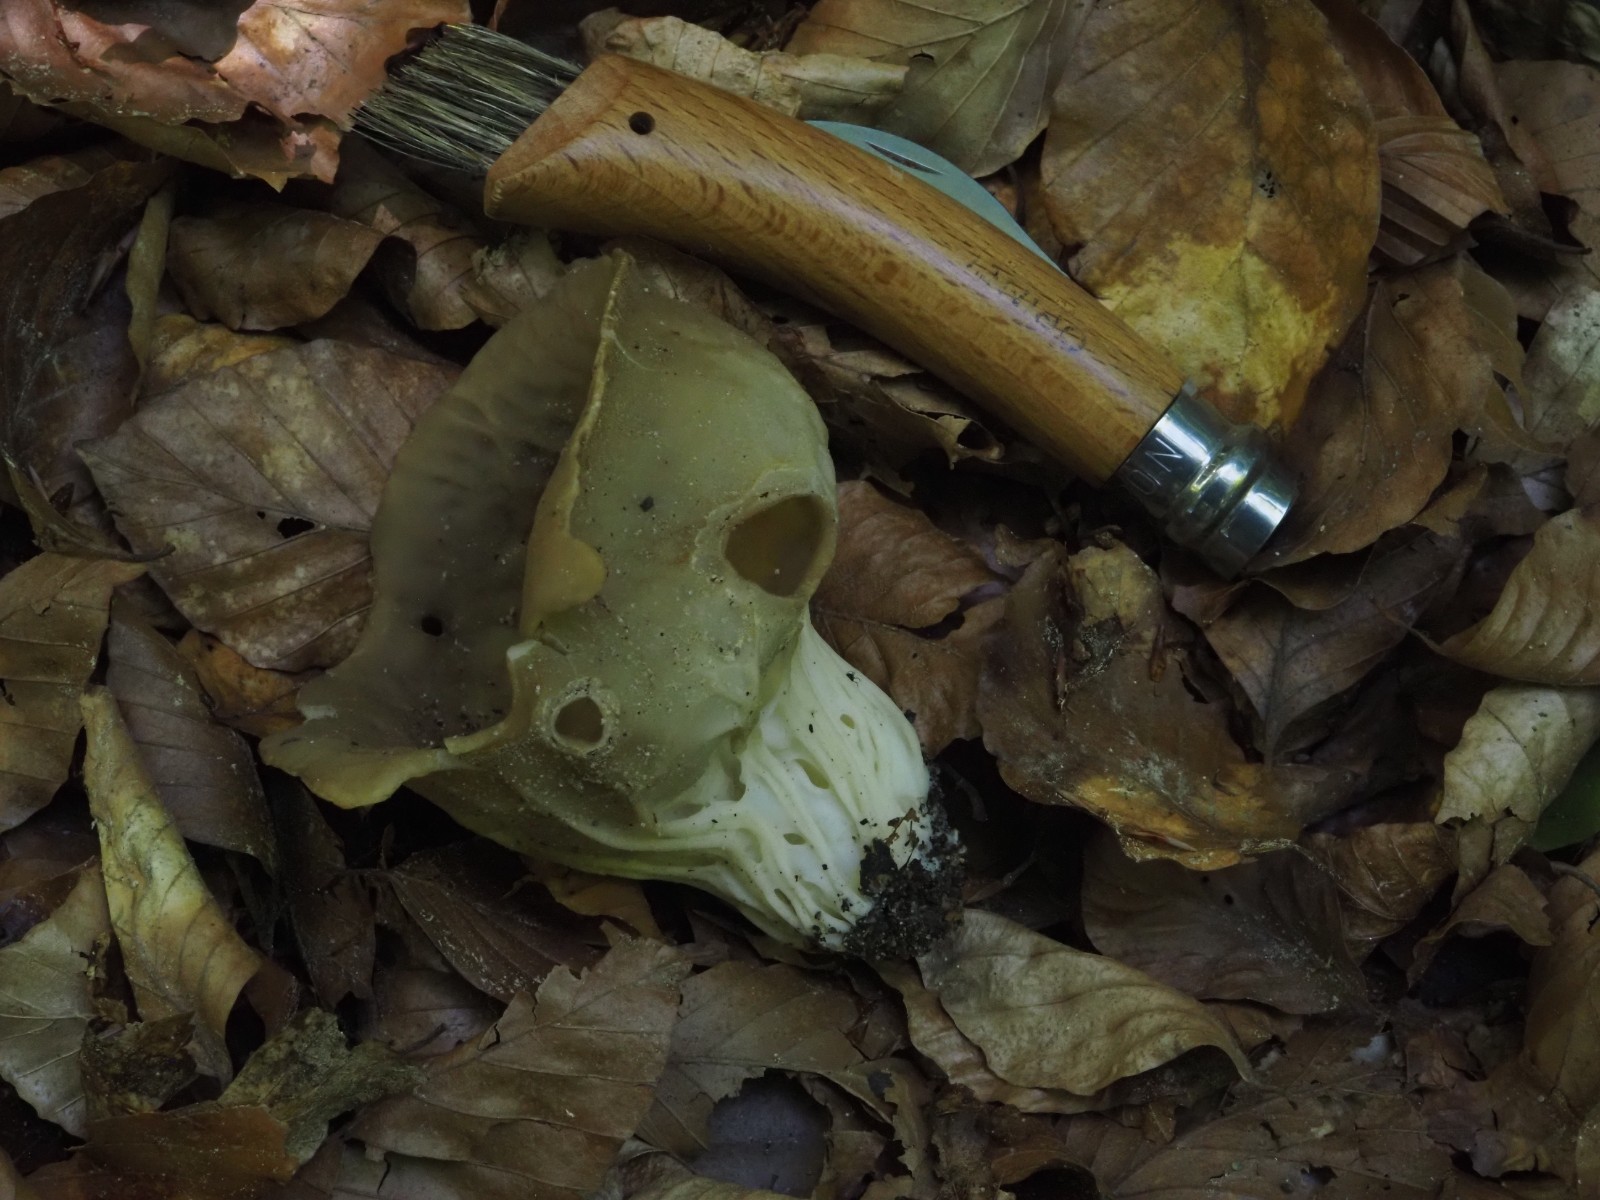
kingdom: Fungi
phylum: Ascomycota
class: Pezizomycetes
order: Pezizales
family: Helvellaceae
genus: Helvella
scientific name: Helvella acetabulum
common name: pokal-foldhat
